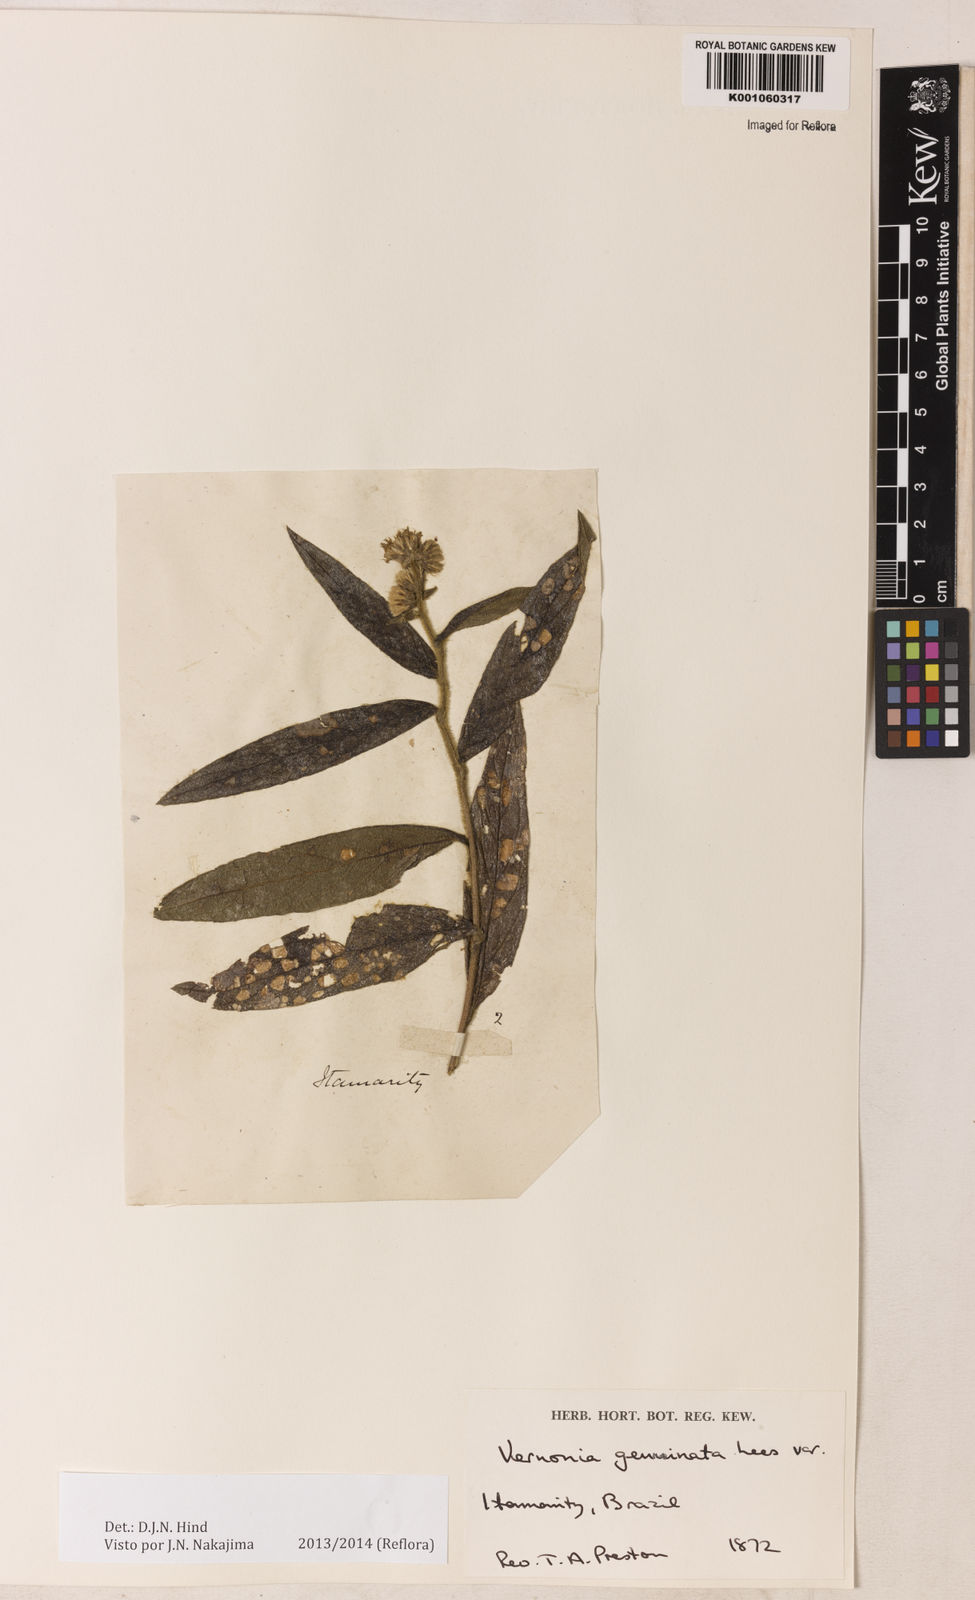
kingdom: Plantae
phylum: Tracheophyta
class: Magnoliopsida
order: Asterales
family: Asteraceae
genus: Lepidaploa
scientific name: Lepidaploa canescens
